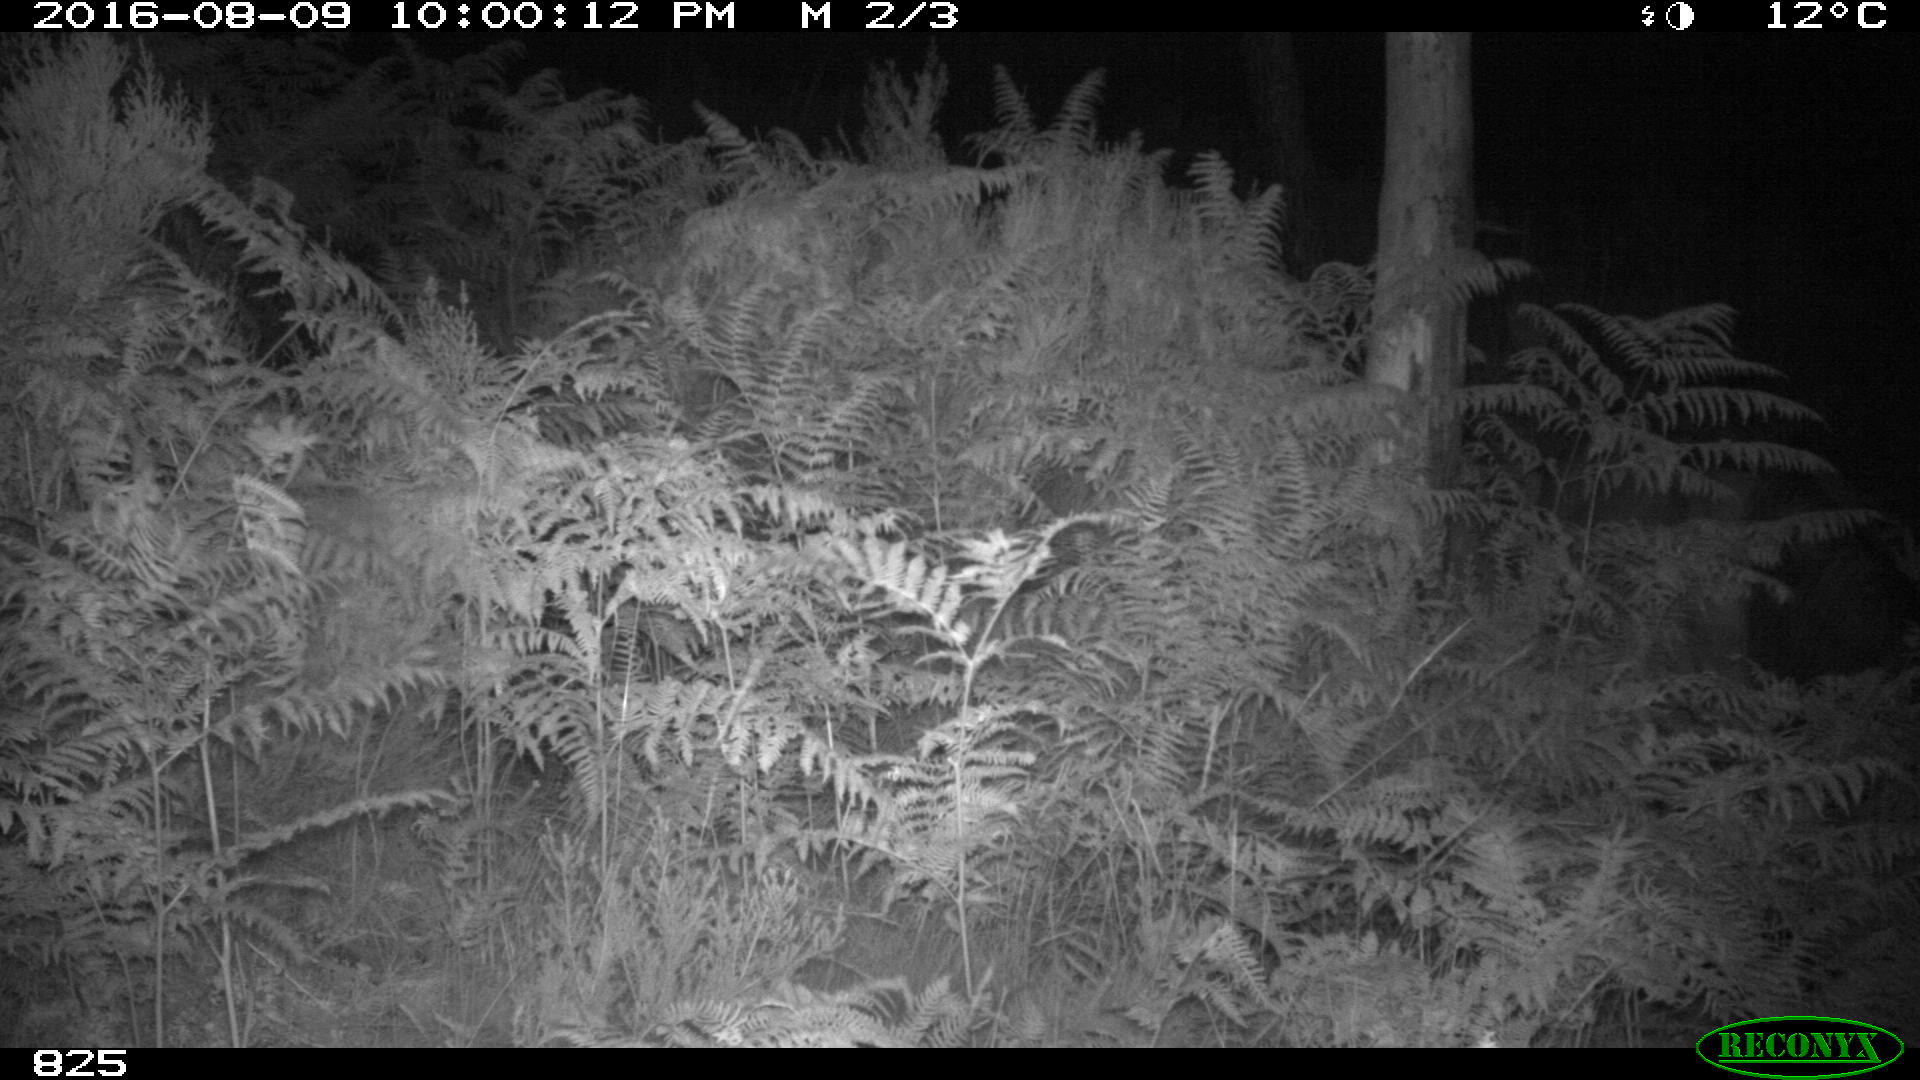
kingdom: Animalia
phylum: Chordata
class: Mammalia
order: Perissodactyla
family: Equidae
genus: Equus
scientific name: Equus caballus
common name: Horse
